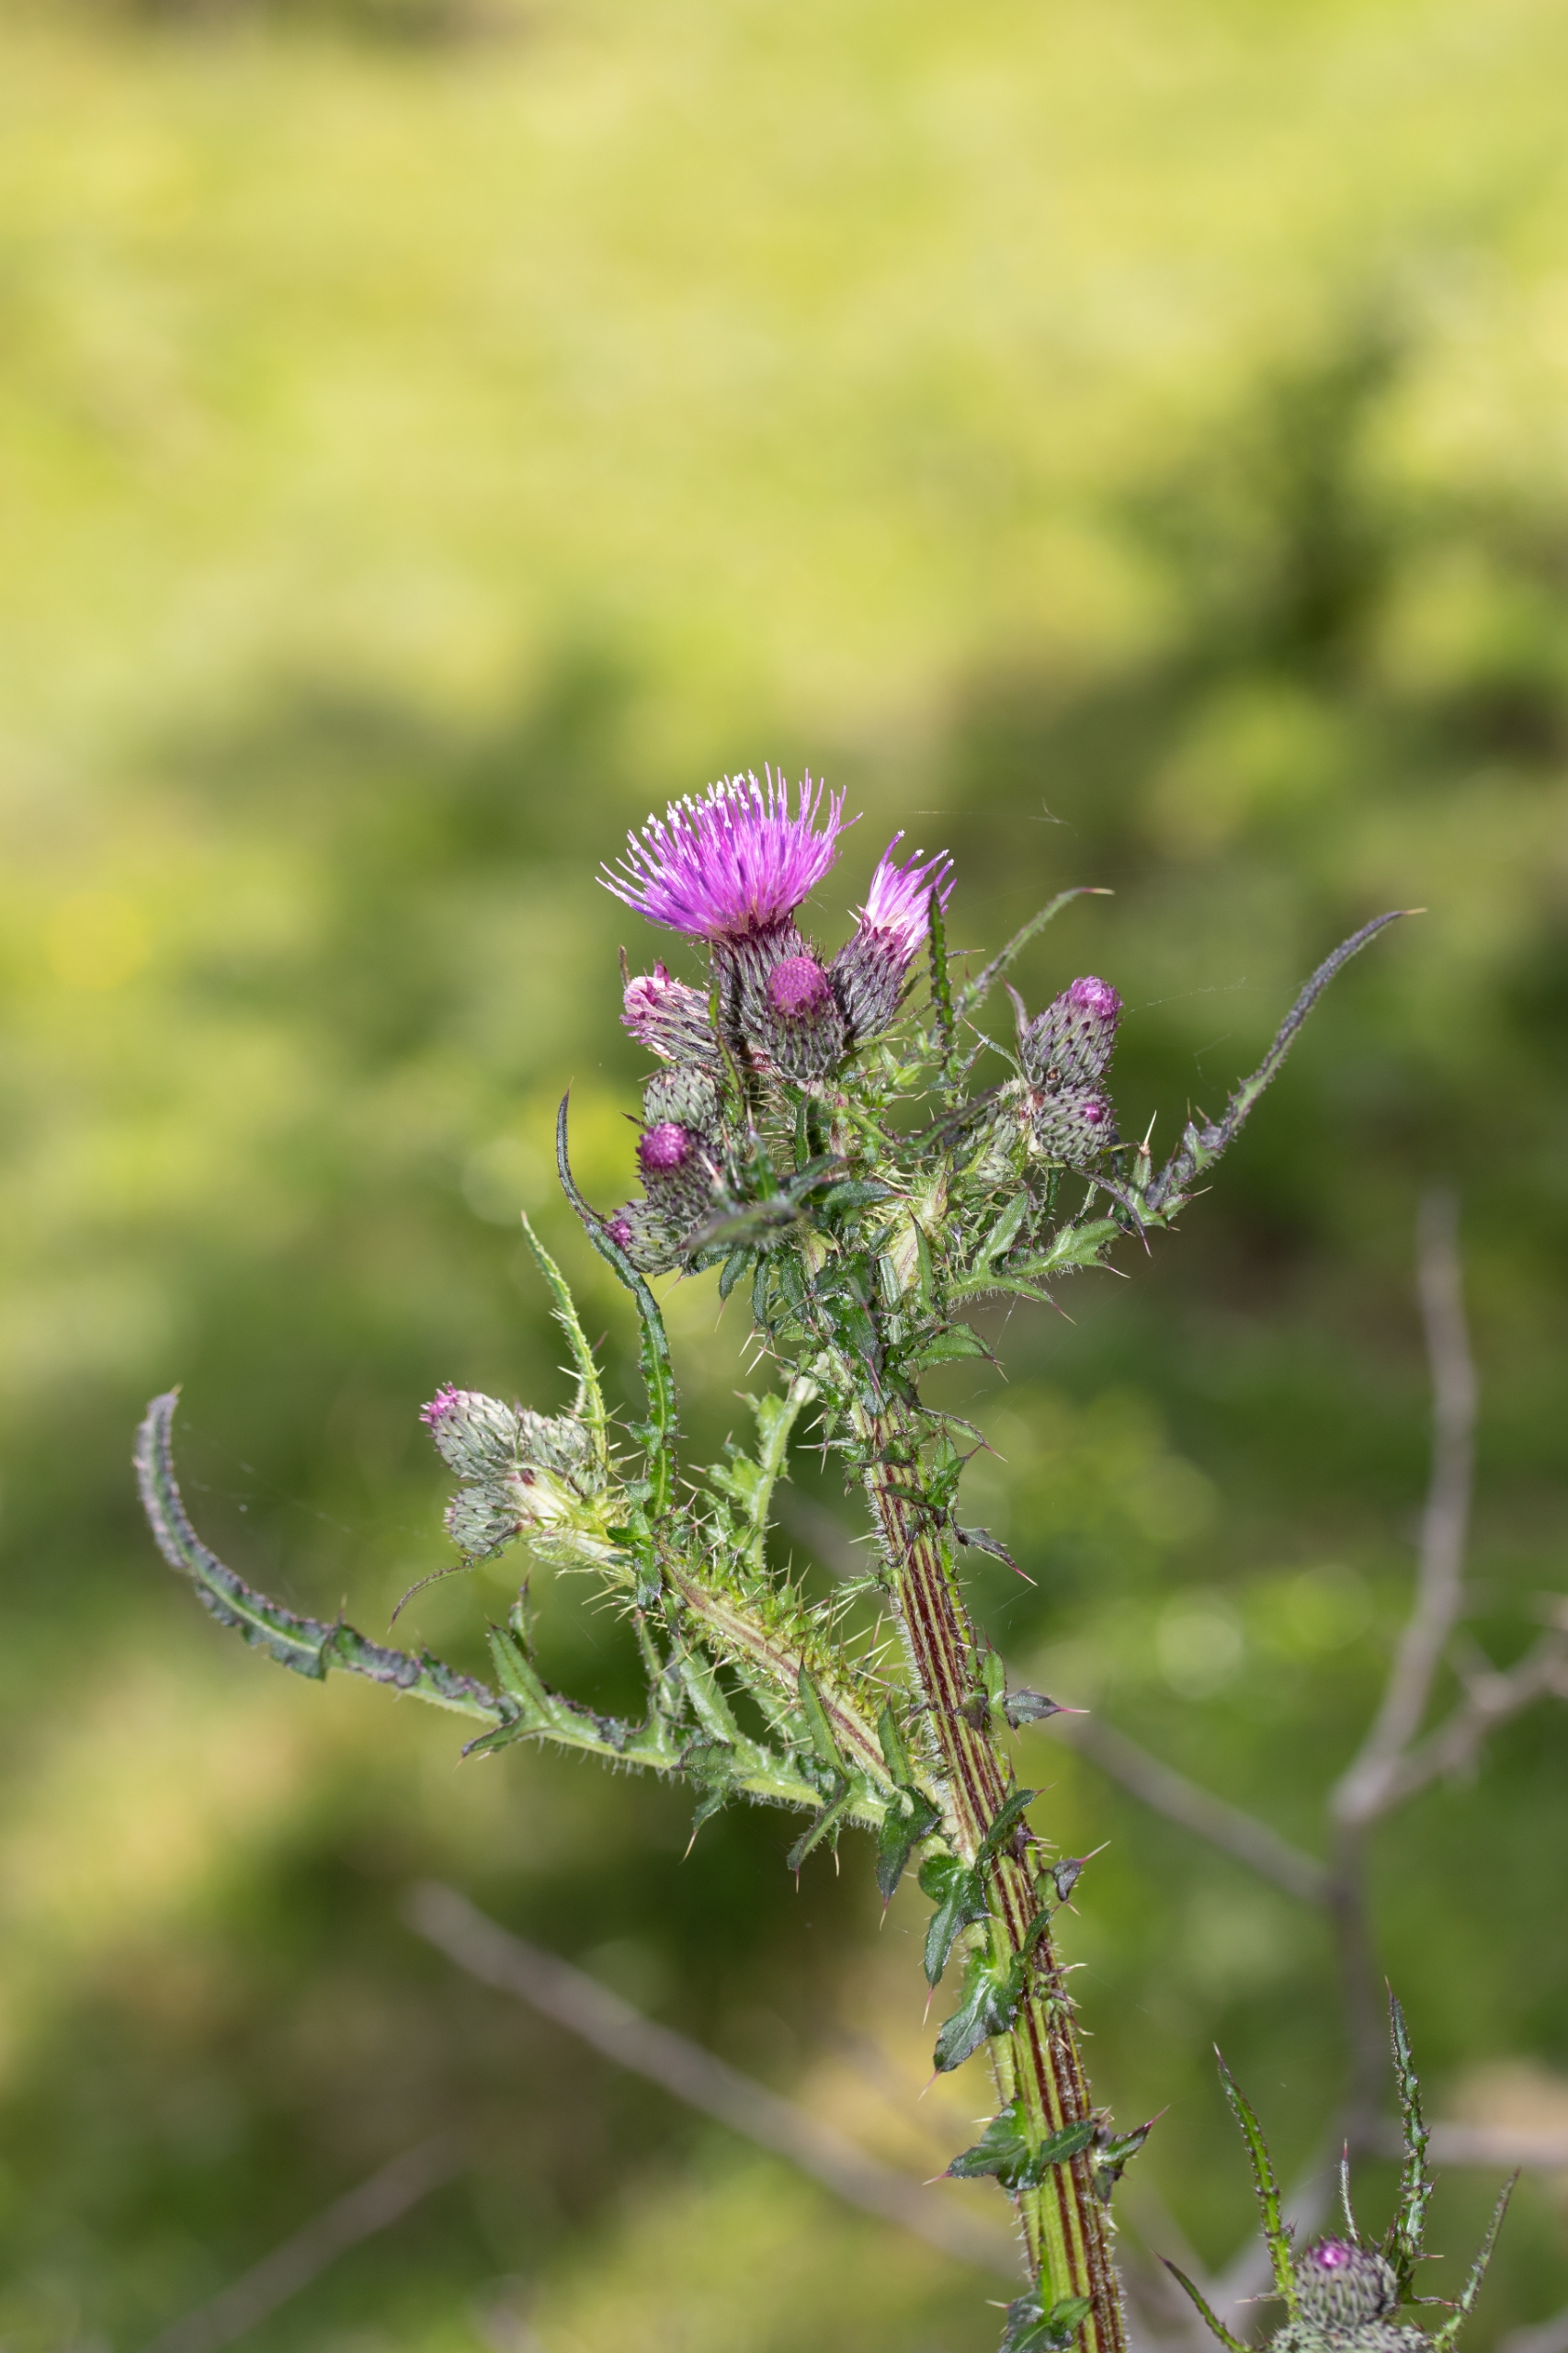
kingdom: Plantae
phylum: Tracheophyta
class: Magnoliopsida
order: Asterales
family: Asteraceae
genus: Cirsium
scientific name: Cirsium palustre
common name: Kær-tidsel
